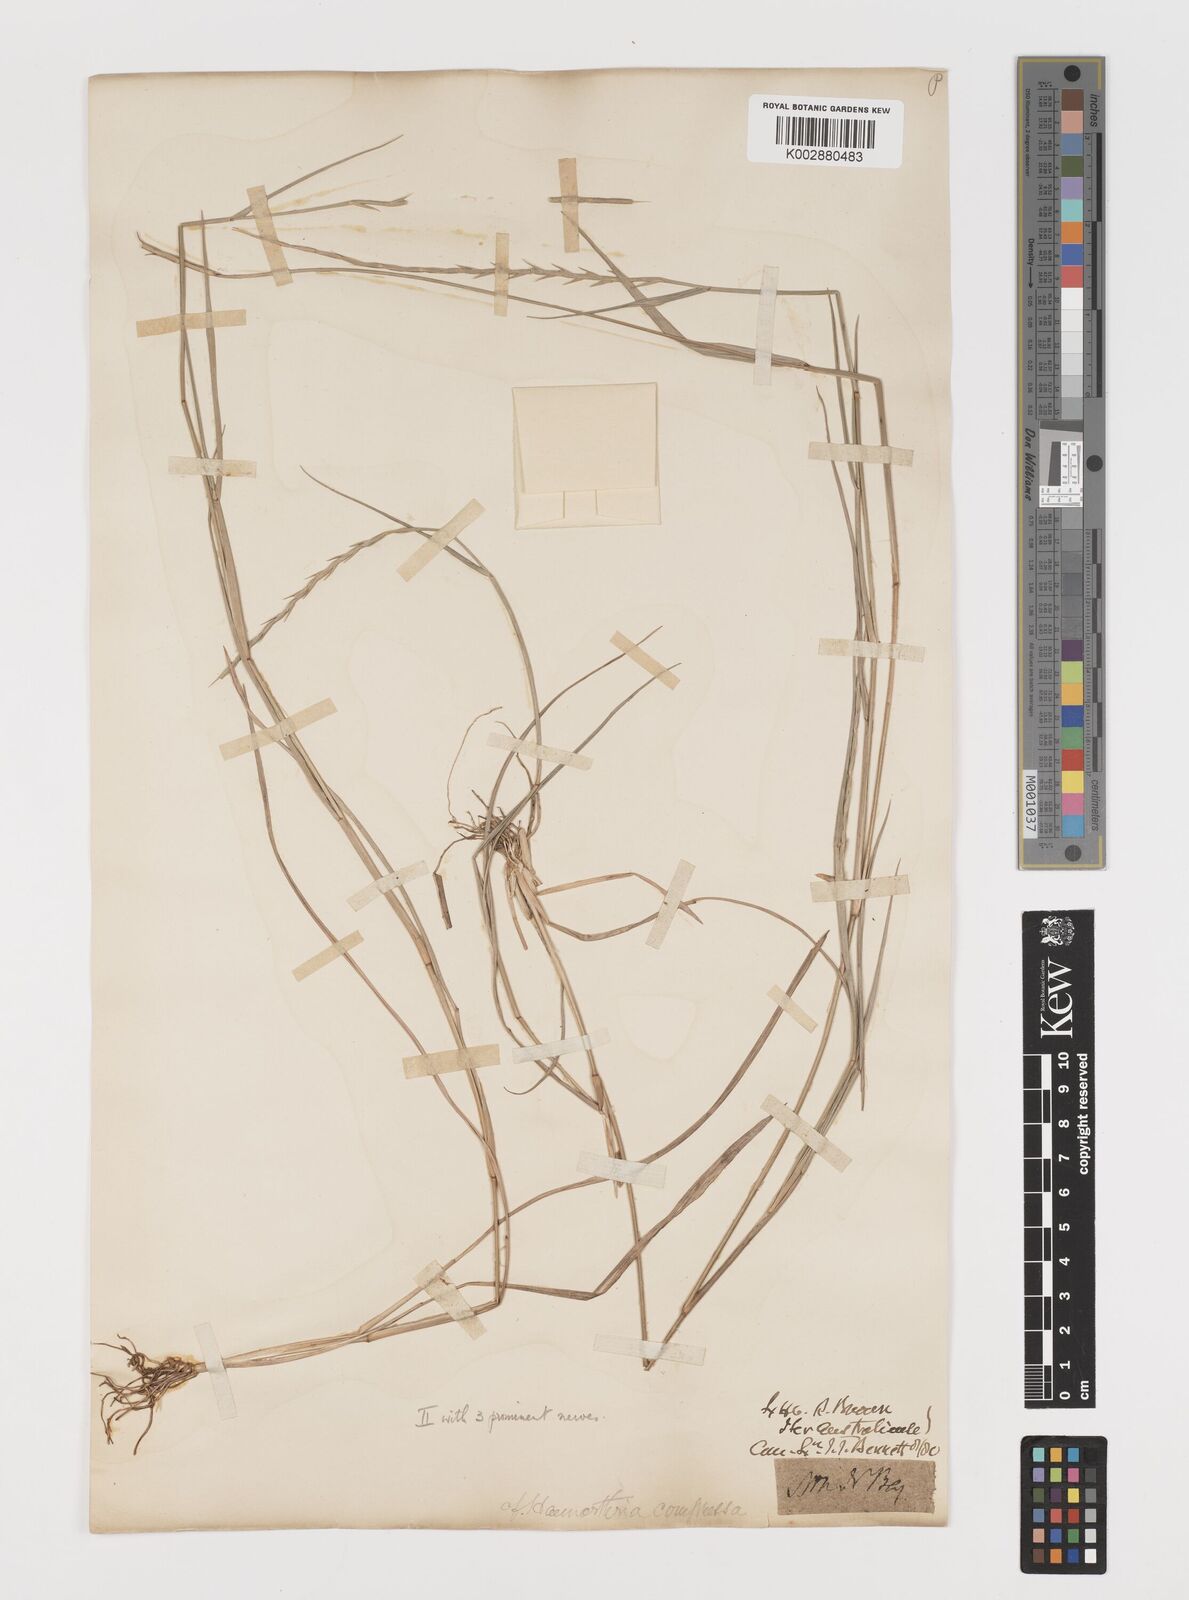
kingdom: Plantae
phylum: Tracheophyta
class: Liliopsida
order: Poales
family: Poaceae
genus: Lepturus
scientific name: Lepturus repens
